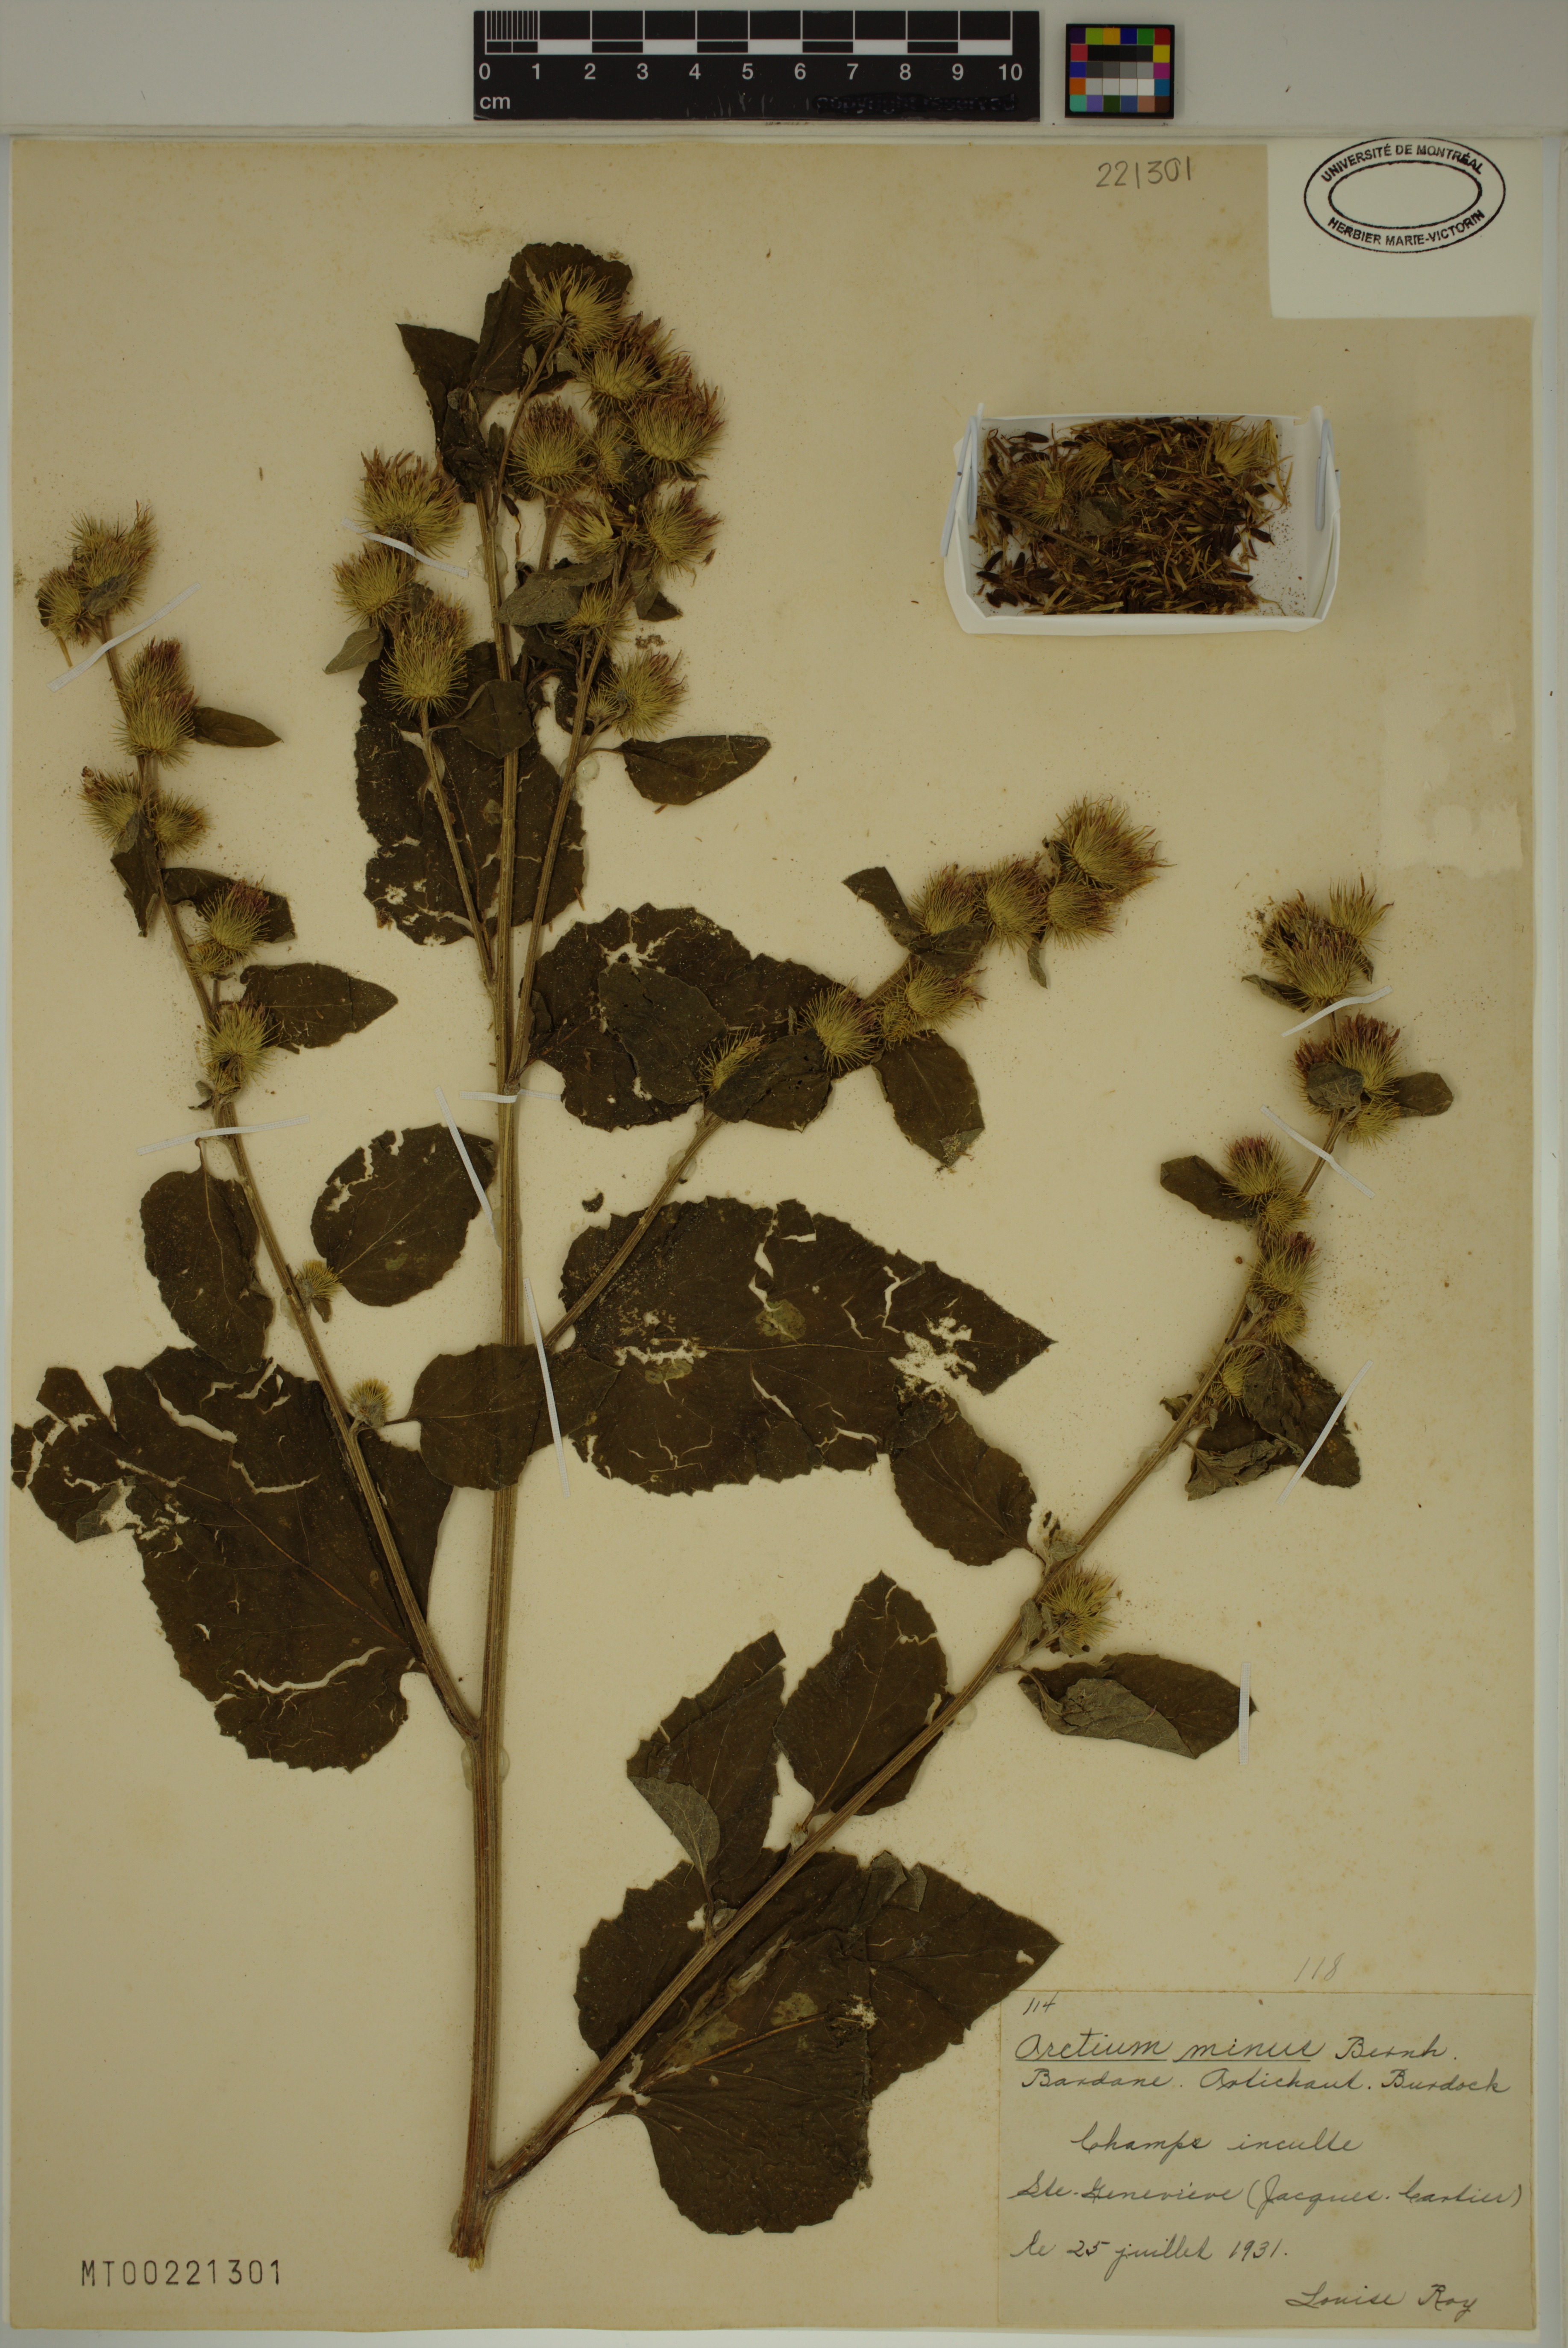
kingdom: Plantae
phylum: Tracheophyta
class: Magnoliopsida
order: Asterales
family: Asteraceae
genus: Arctium
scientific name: Arctium minus
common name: Lesser burdock
